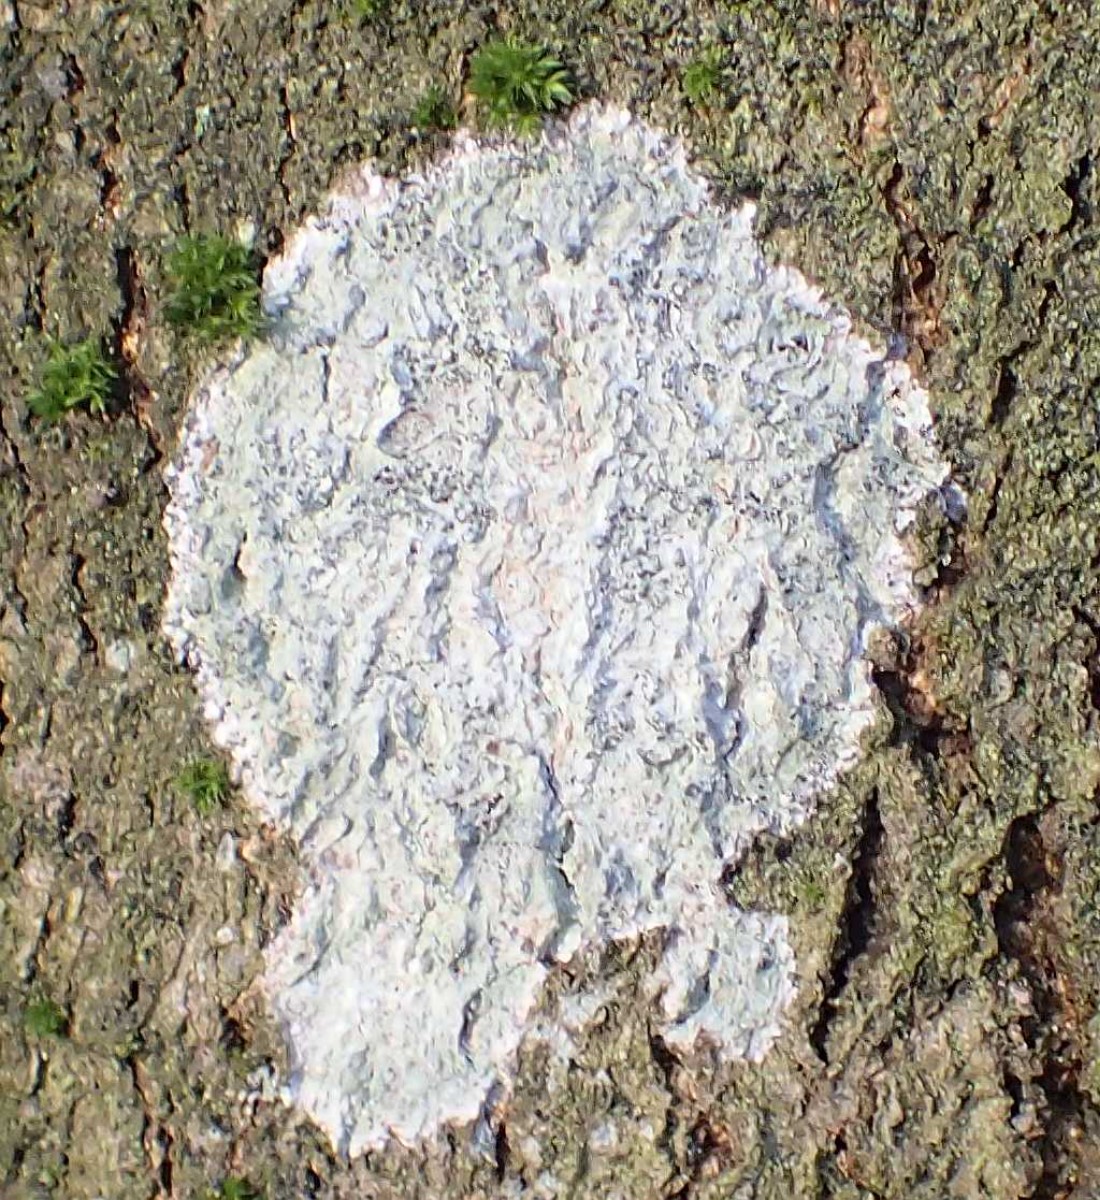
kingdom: Fungi
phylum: Ascomycota
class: Lecanoromycetes
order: Ostropales
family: Phlyctidaceae
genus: Phlyctis
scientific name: Phlyctis argena
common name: almindelig sølvlav
